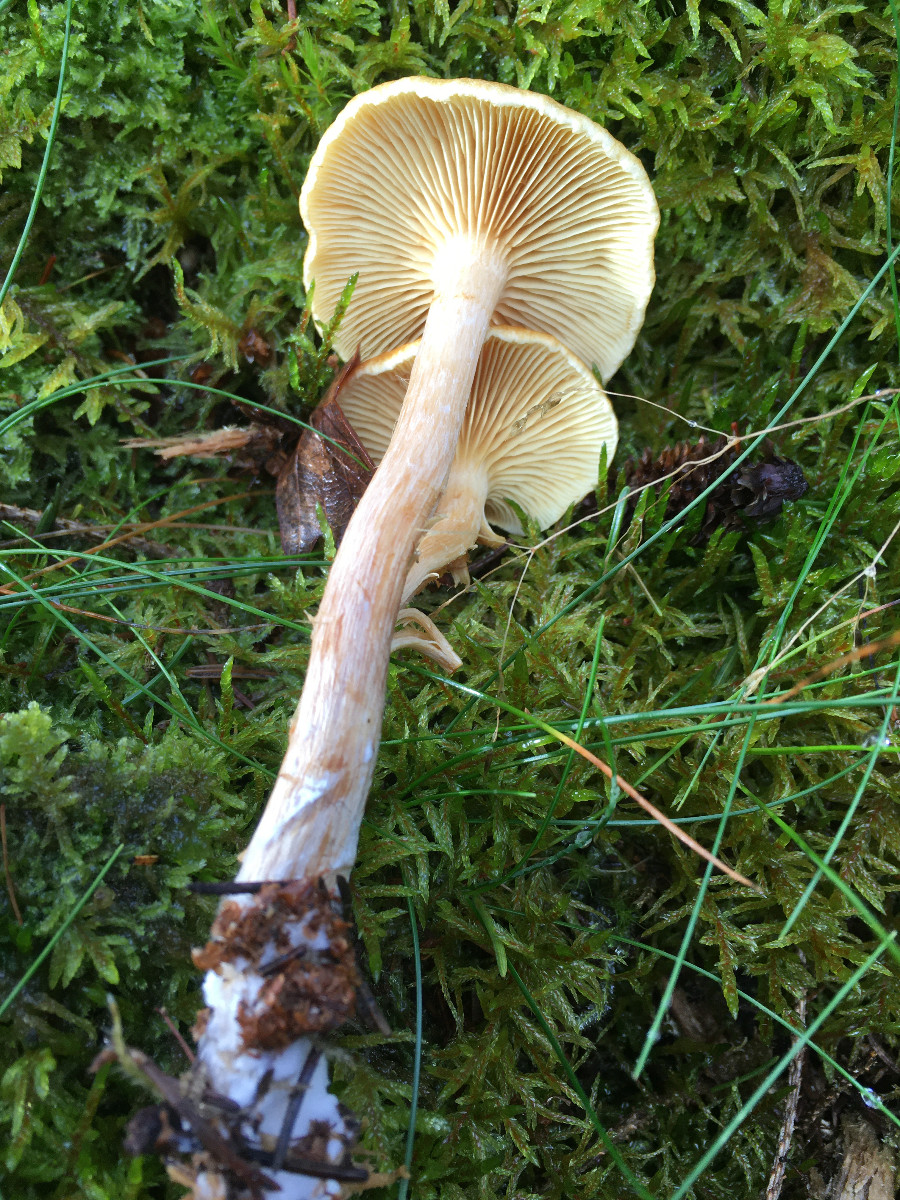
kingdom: Fungi
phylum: Basidiomycota
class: Agaricomycetes
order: Agaricales
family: Strophariaceae
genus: Hypholoma
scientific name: Hypholoma fasciculare
